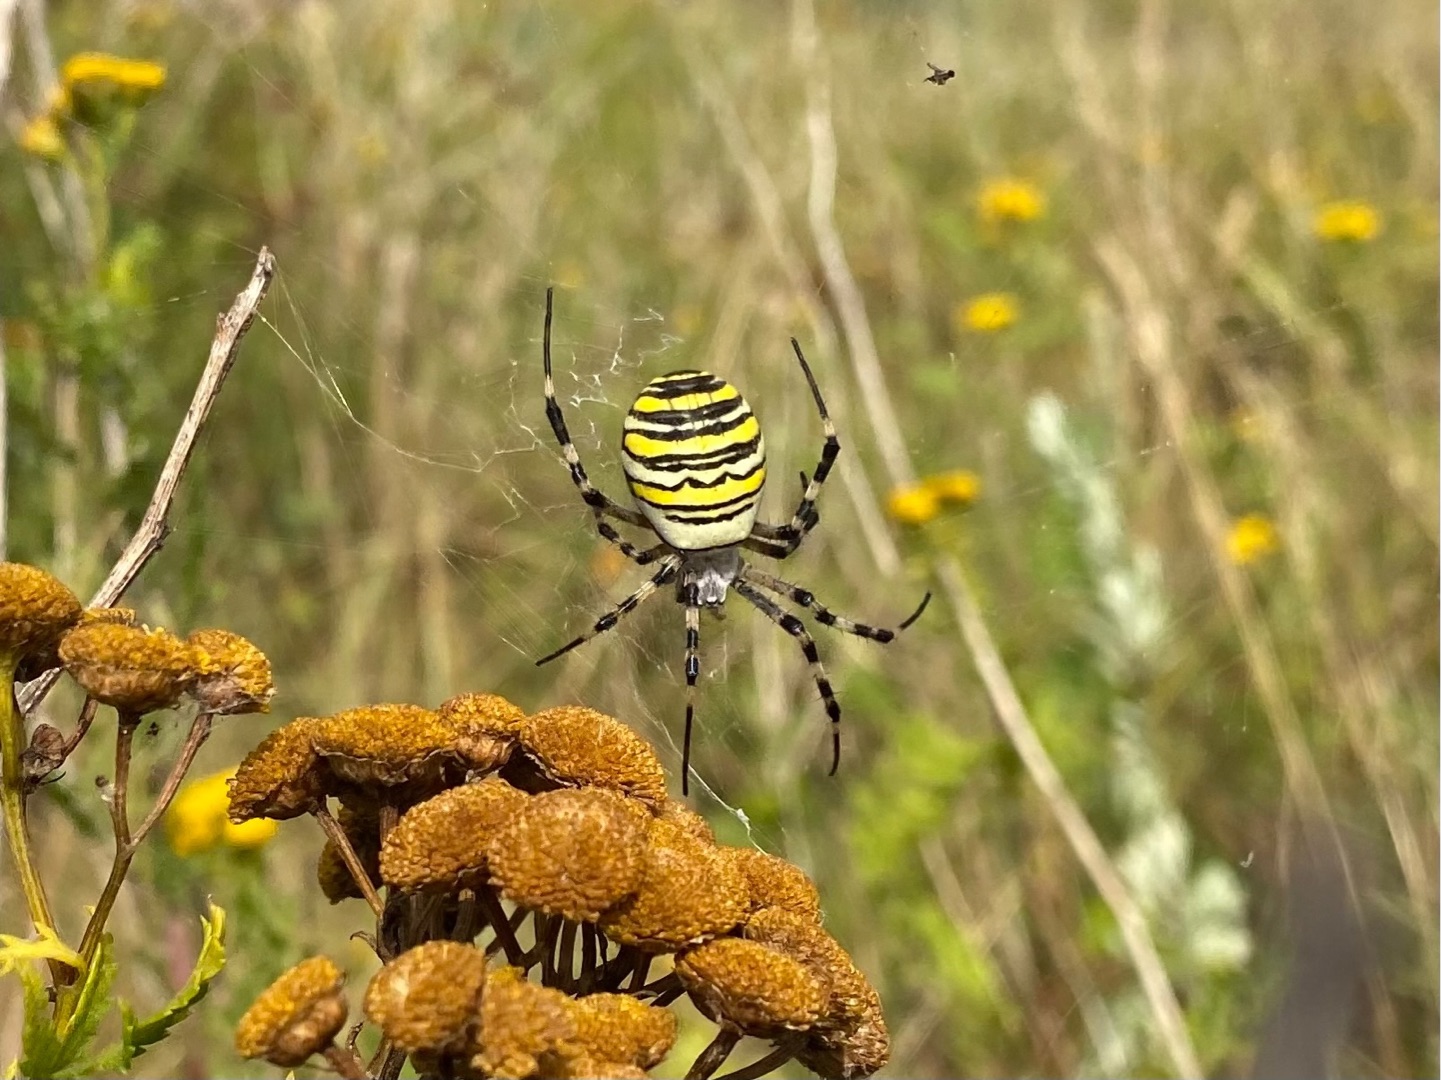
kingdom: Animalia
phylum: Arthropoda
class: Arachnida
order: Araneae
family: Araneidae
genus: Argiope
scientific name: Argiope bruennichi
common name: Hvepseedderkop
